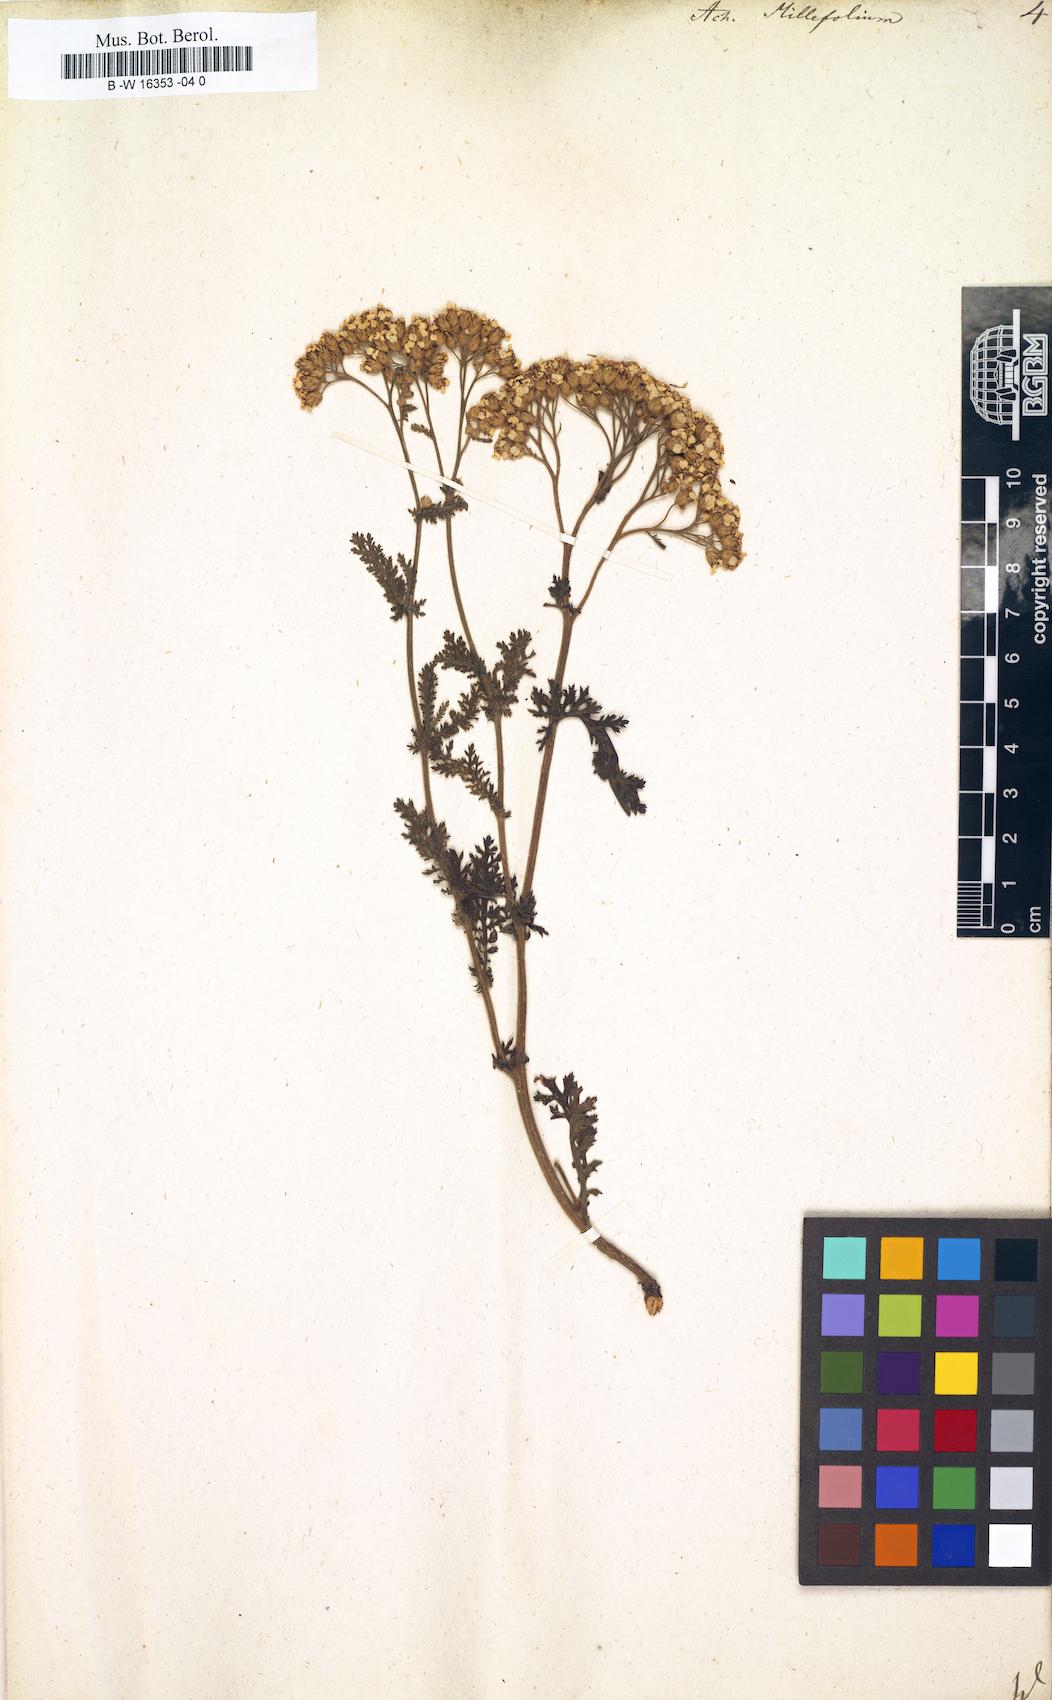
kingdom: Plantae
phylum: Tracheophyta
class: Magnoliopsida
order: Asterales
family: Asteraceae
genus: Achillea
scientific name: Achillea millefolium
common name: Yarrow
